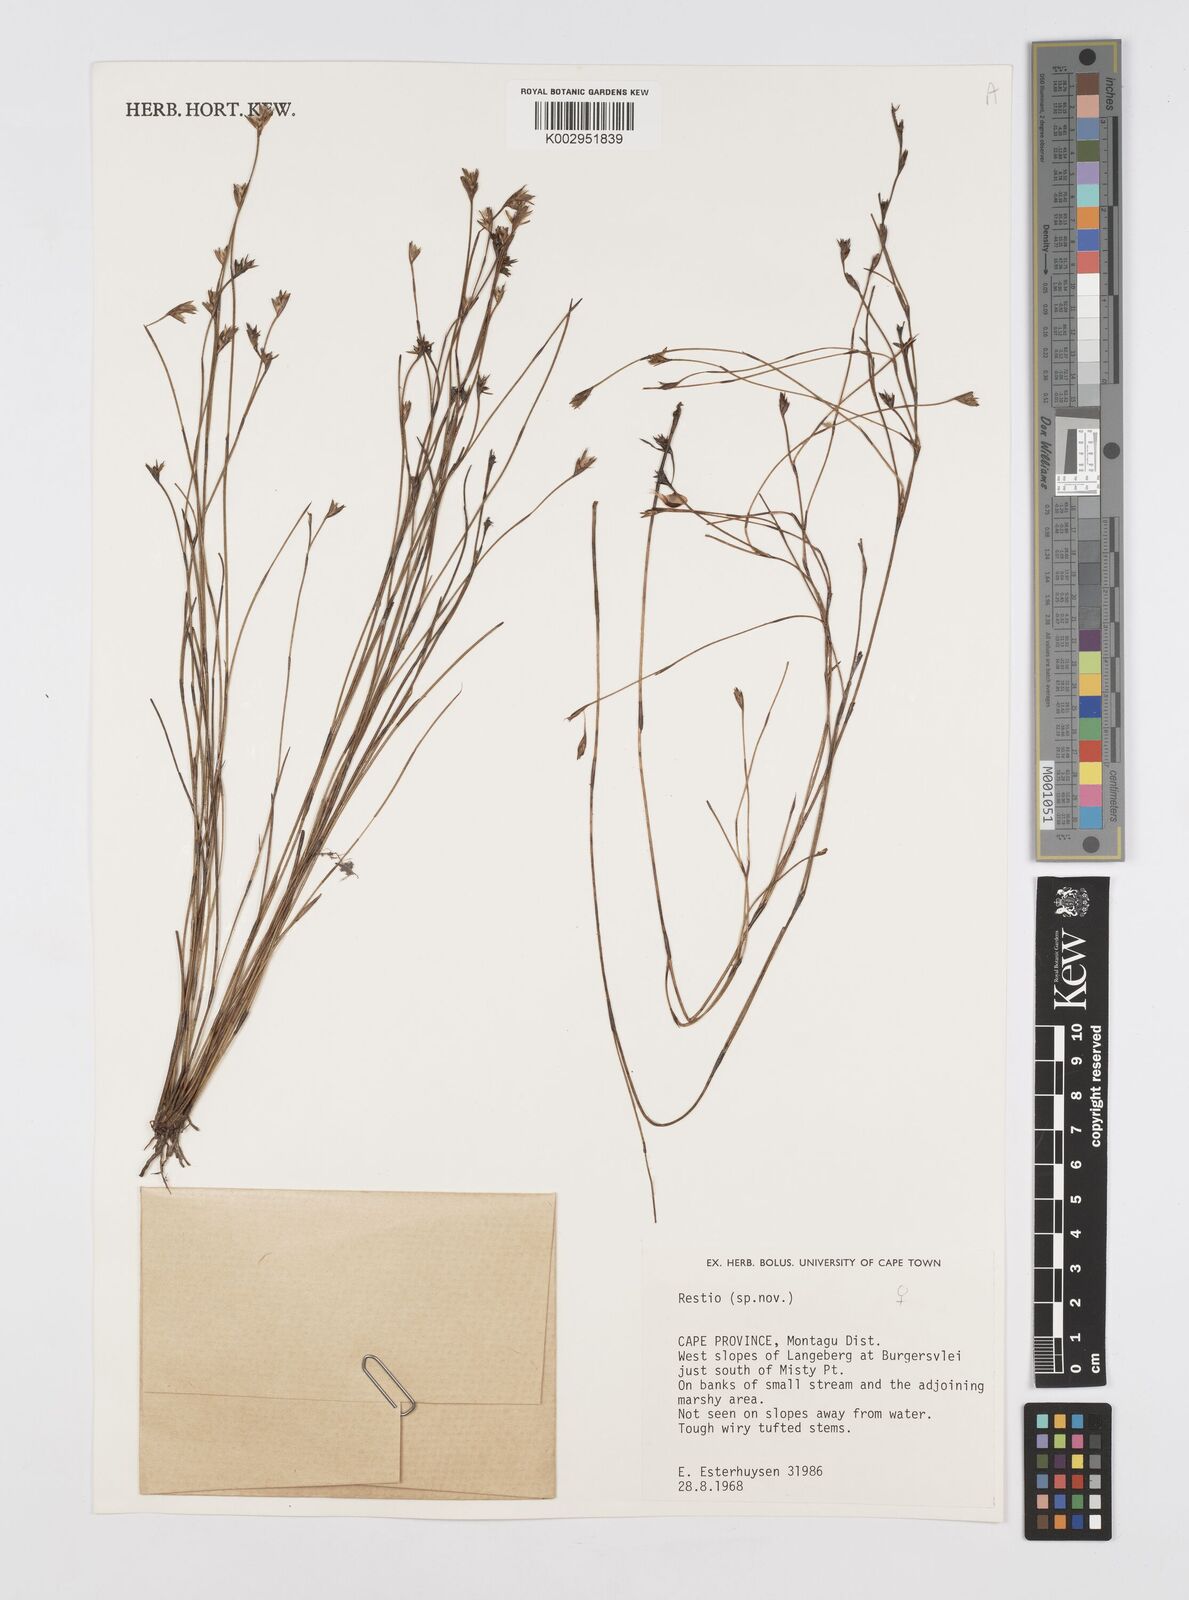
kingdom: Plantae
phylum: Tracheophyta
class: Liliopsida
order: Poales
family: Restionaceae
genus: Restio
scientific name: Restio
